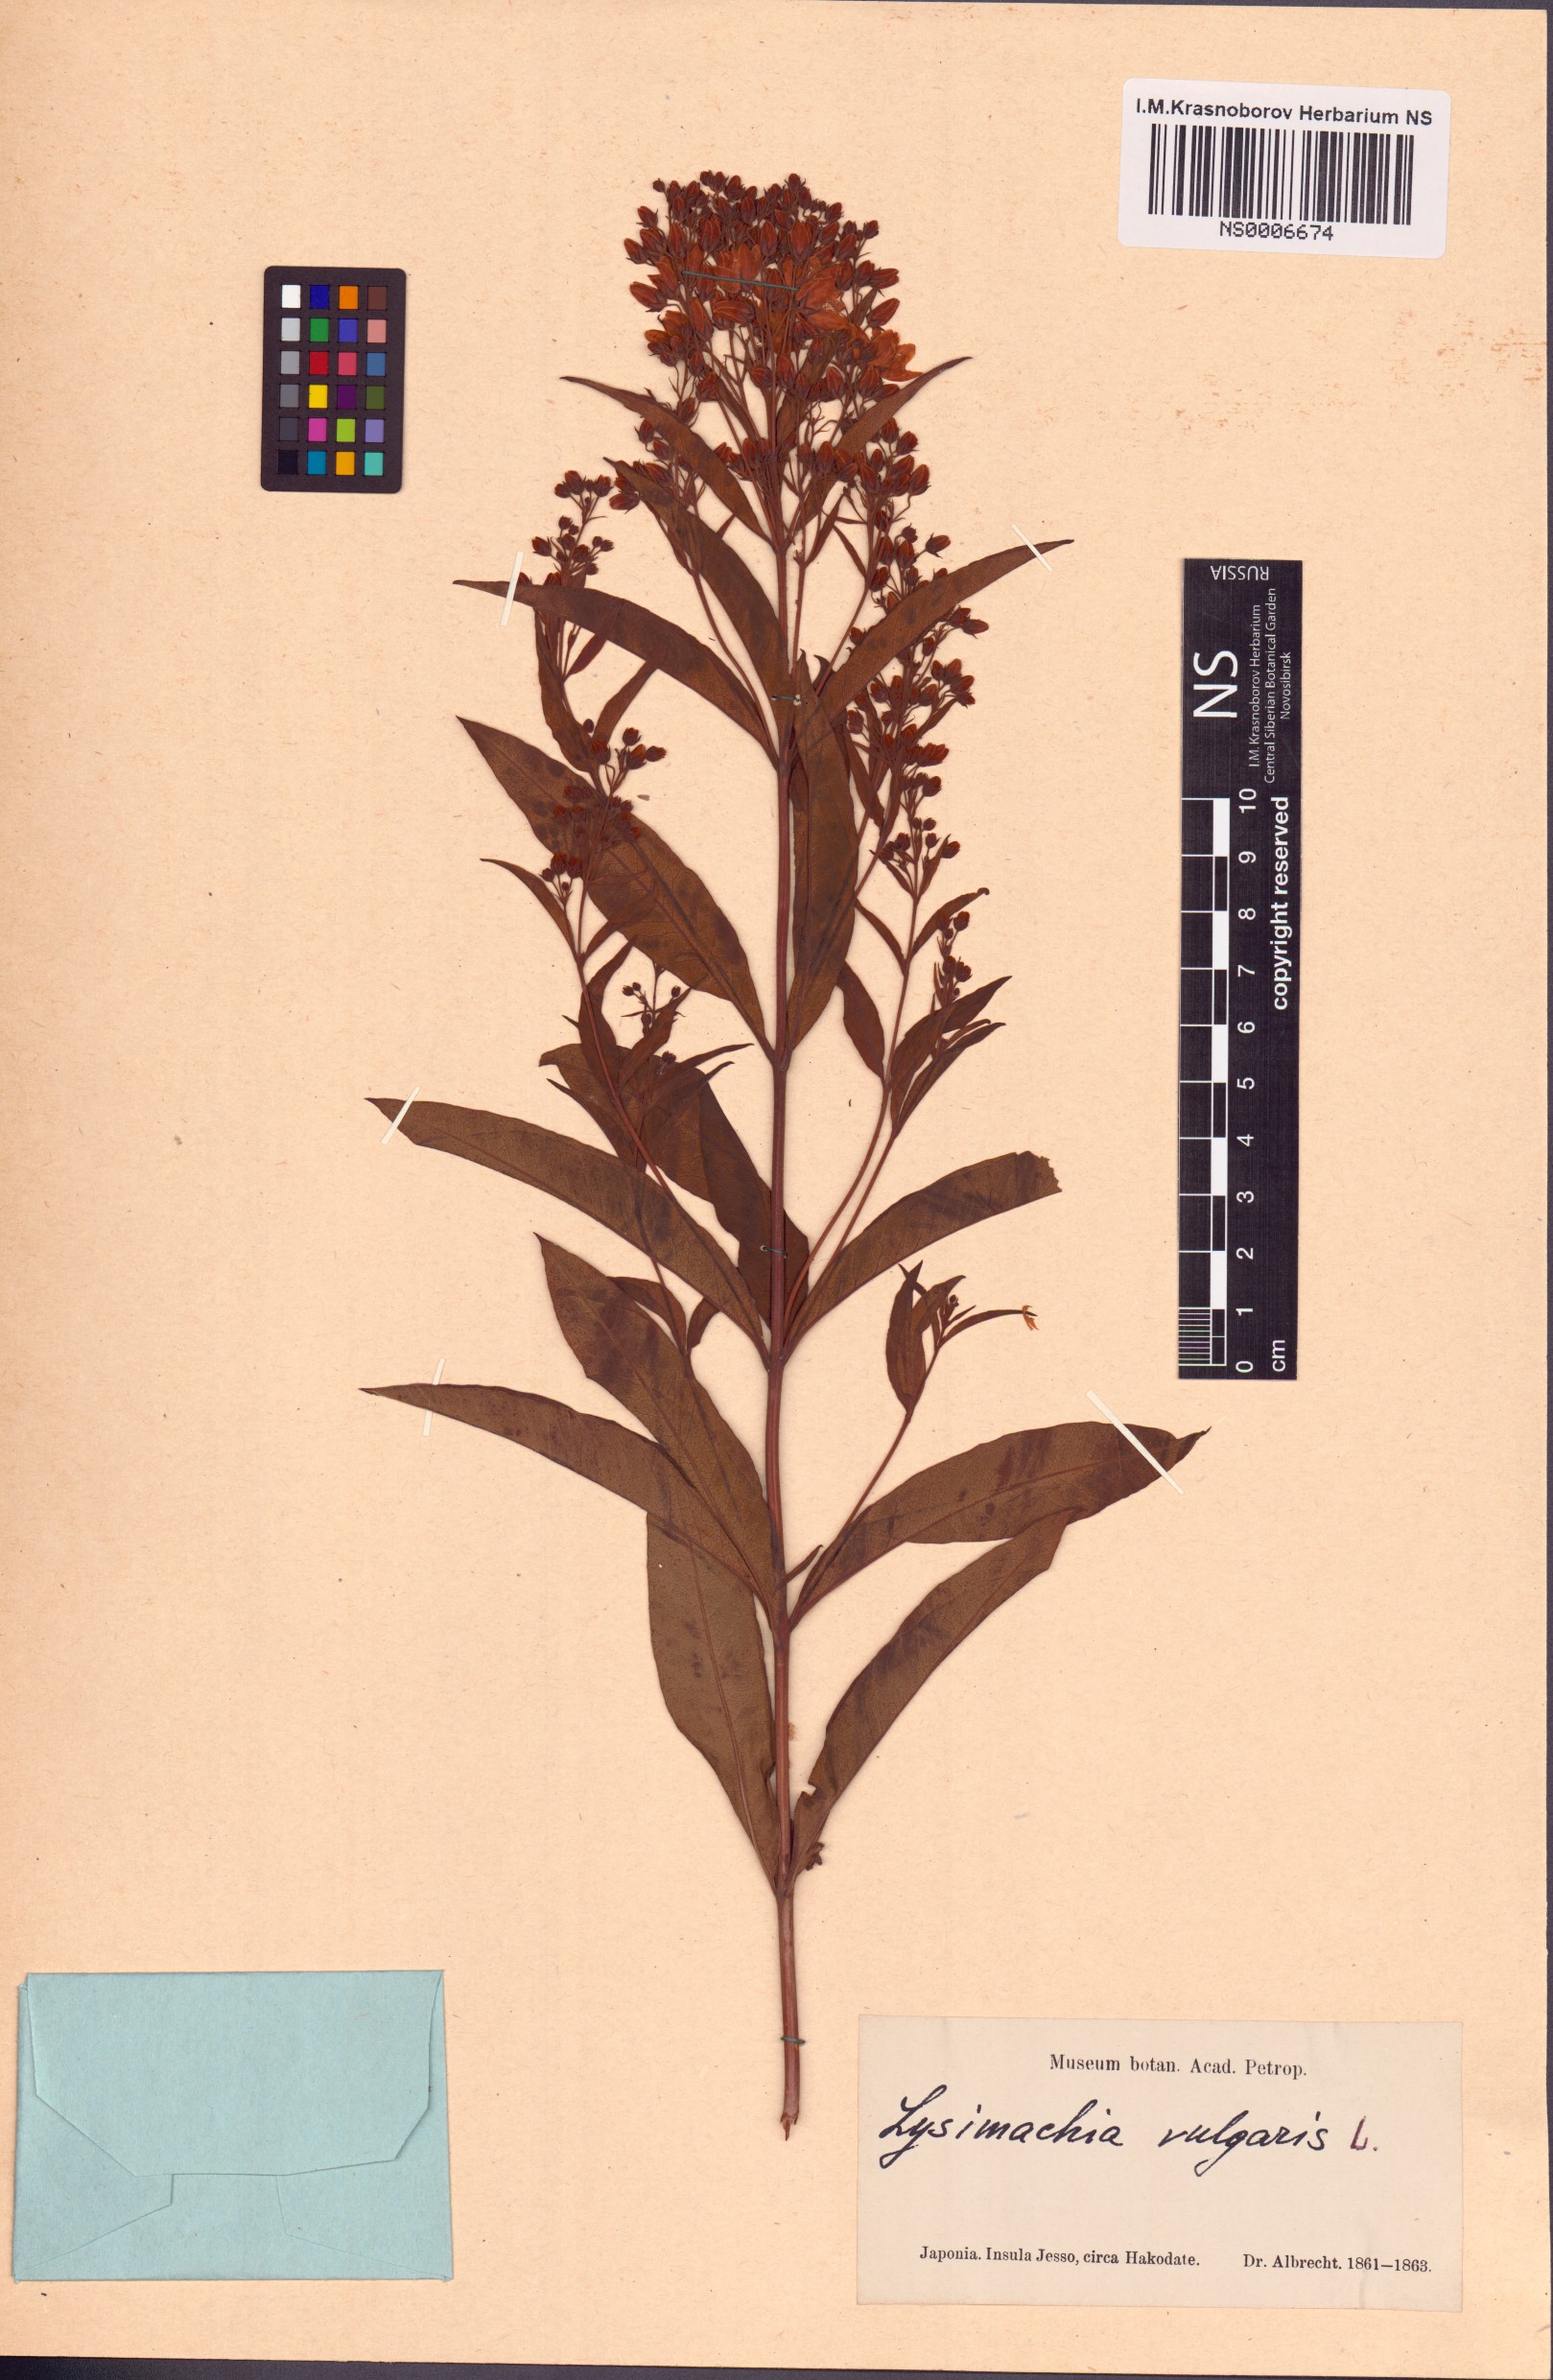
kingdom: Plantae
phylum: Tracheophyta
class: Magnoliopsida
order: Ericales
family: Primulaceae
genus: Lysimachia
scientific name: Lysimachia vulgaris
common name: Yellow loosestrife
